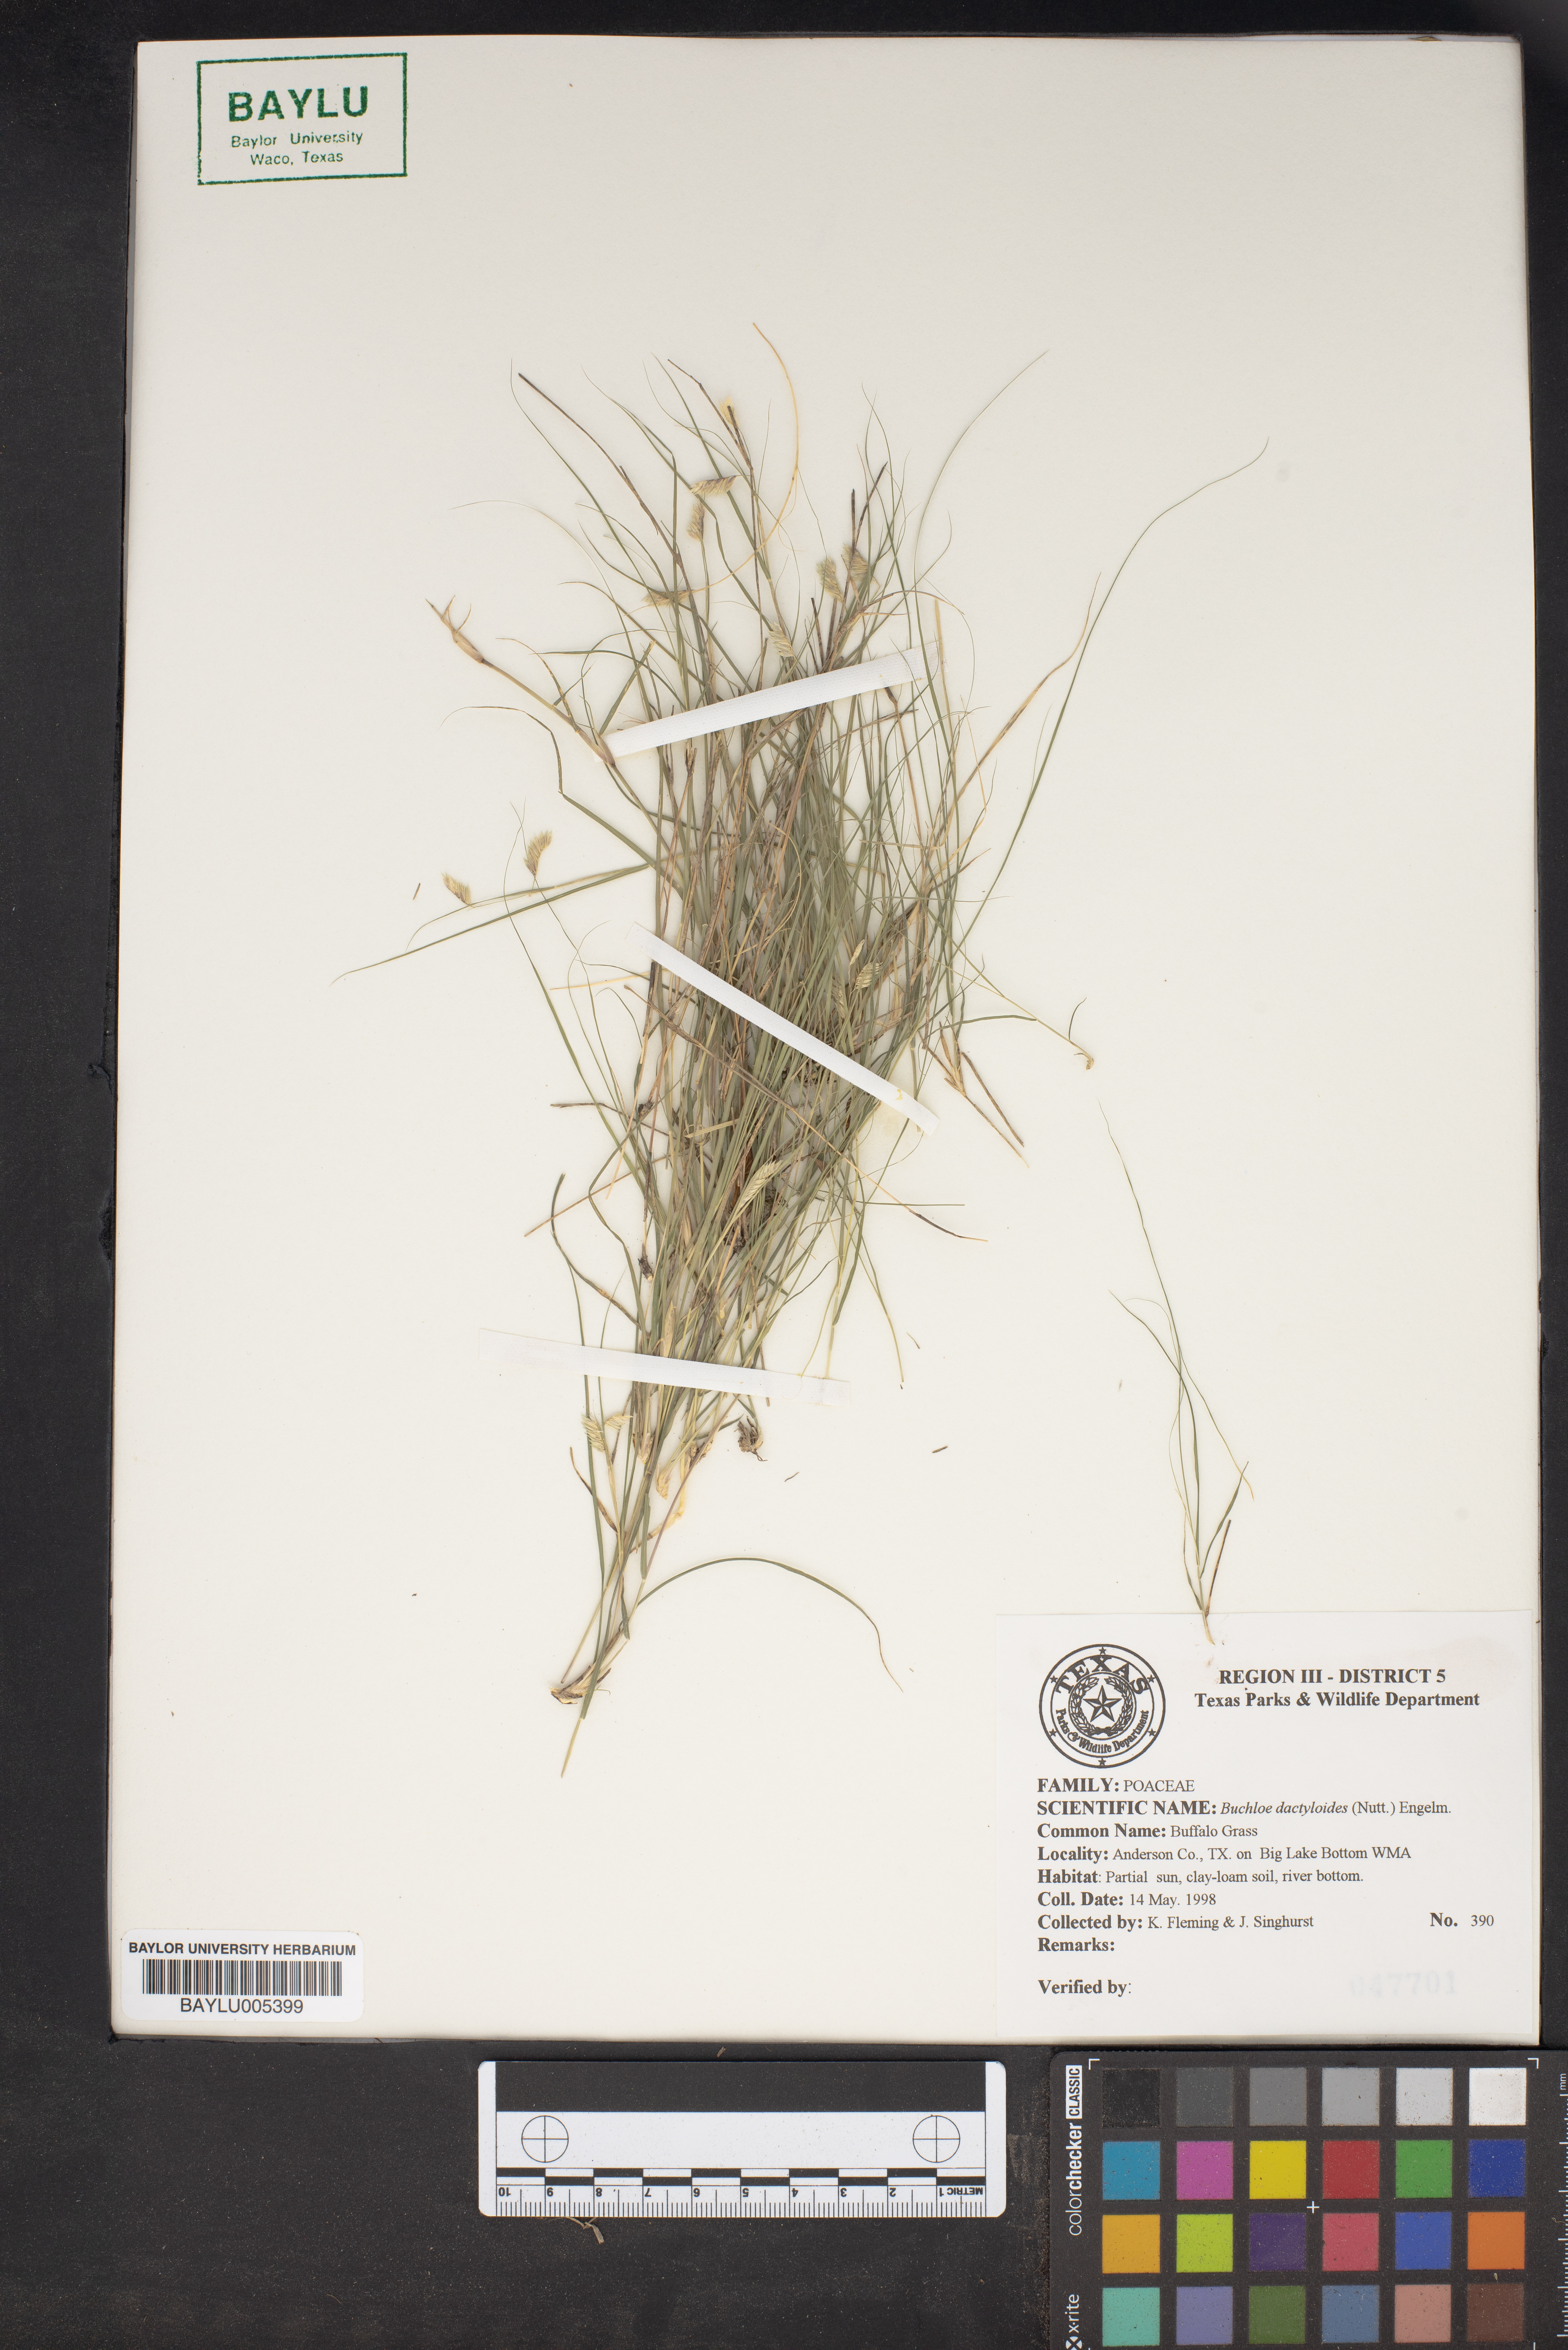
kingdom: Plantae
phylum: Tracheophyta
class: Liliopsida
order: Poales
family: Poaceae
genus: Bouteloua
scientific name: Bouteloua dactyloides
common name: Buffalo grass
